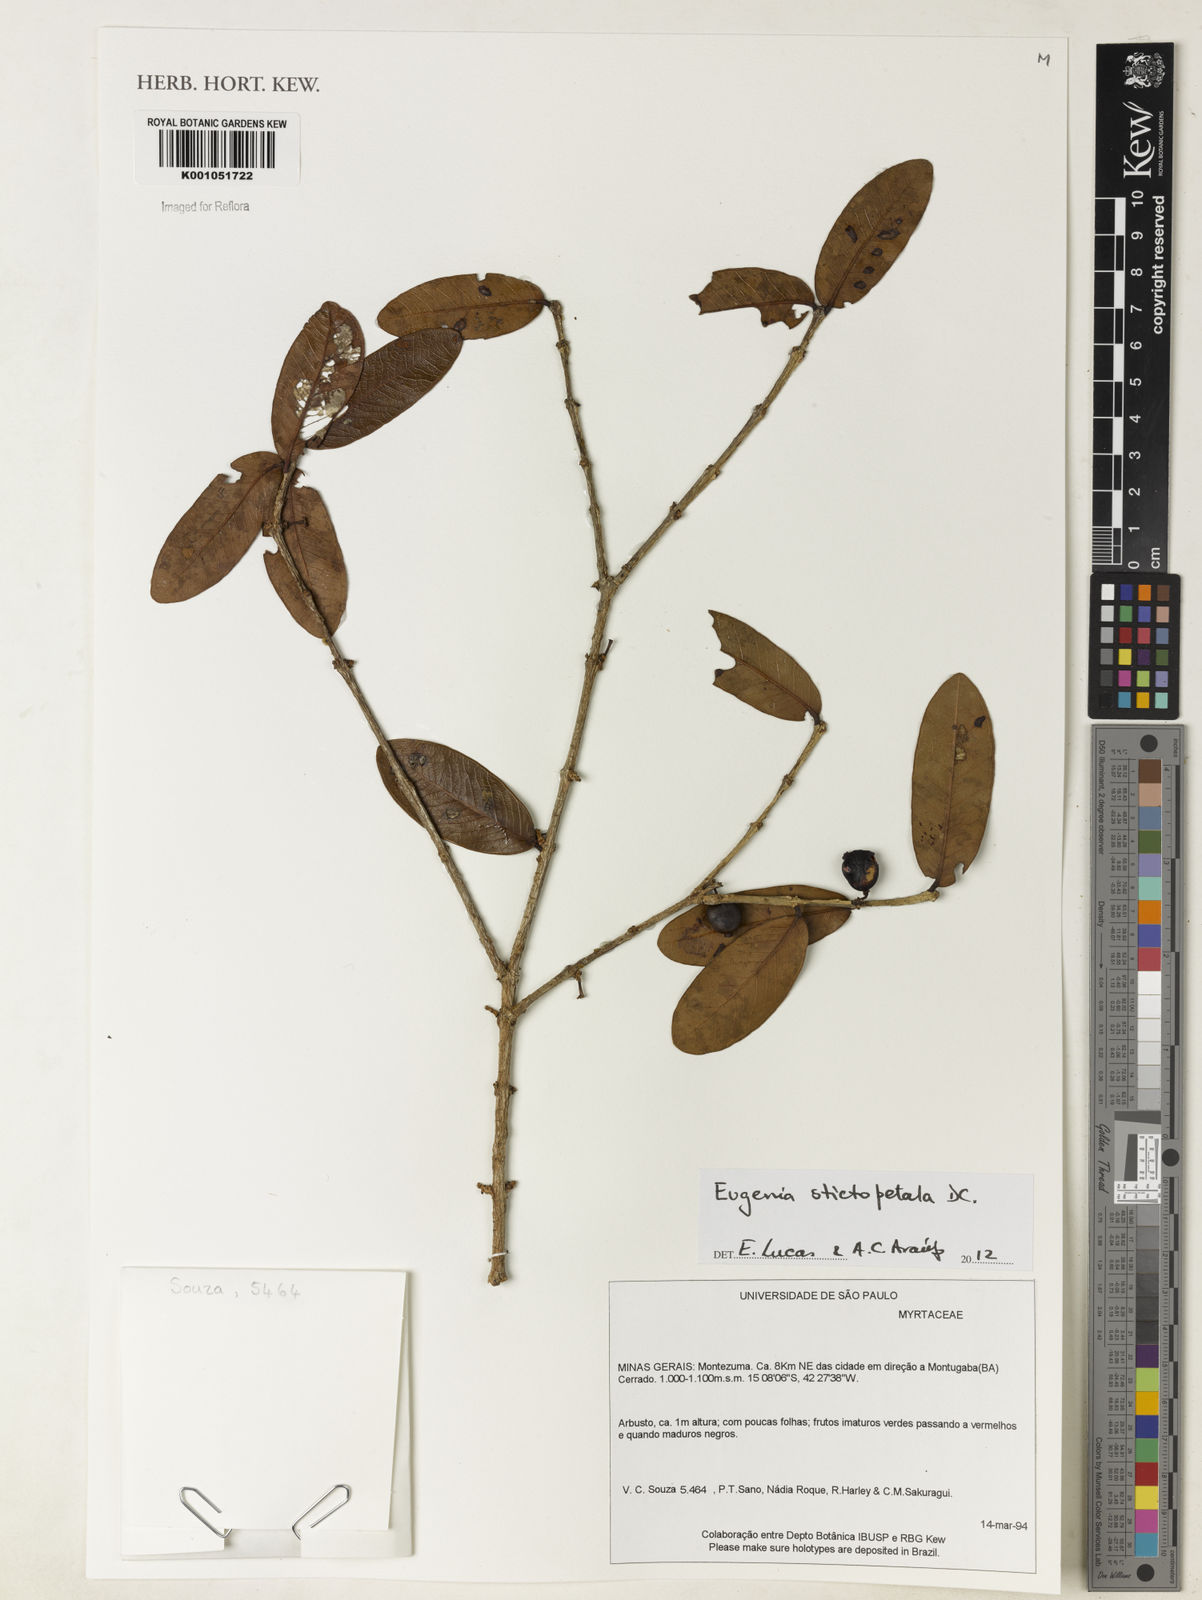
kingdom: Plantae
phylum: Tracheophyta
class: Magnoliopsida
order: Myrtales
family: Myrtaceae
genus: Eugenia
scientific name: Eugenia stictopetala
